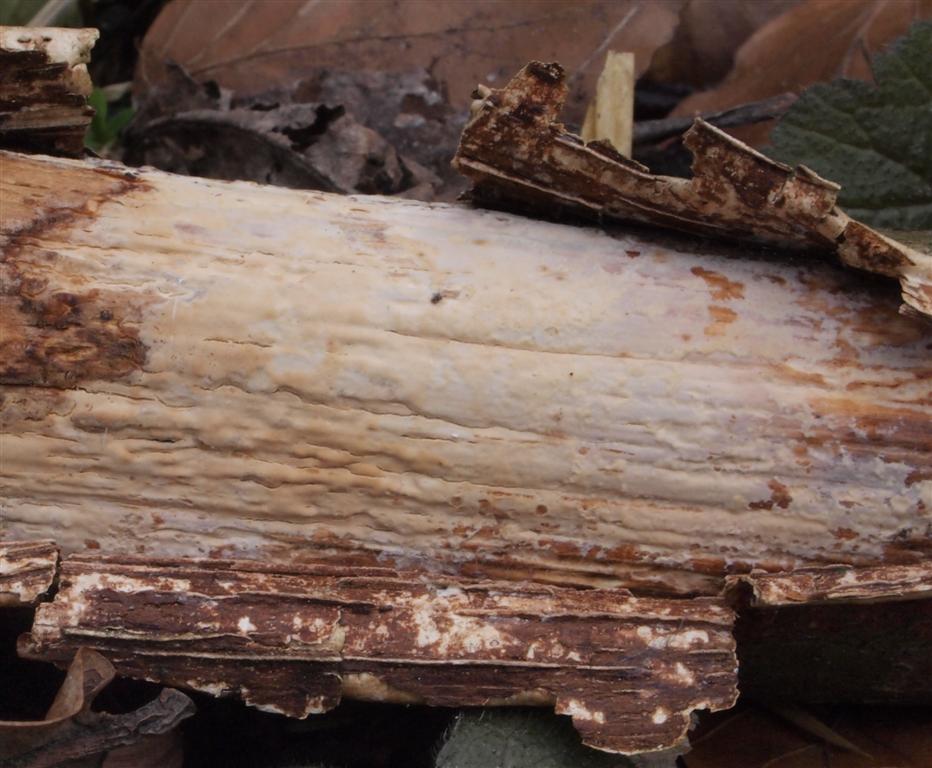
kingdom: Fungi
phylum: Basidiomycota
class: Agaricomycetes
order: Agaricales
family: Radulomycetaceae
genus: Radulomyces
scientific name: Radulomyces confluens
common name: glat naftalinskind
